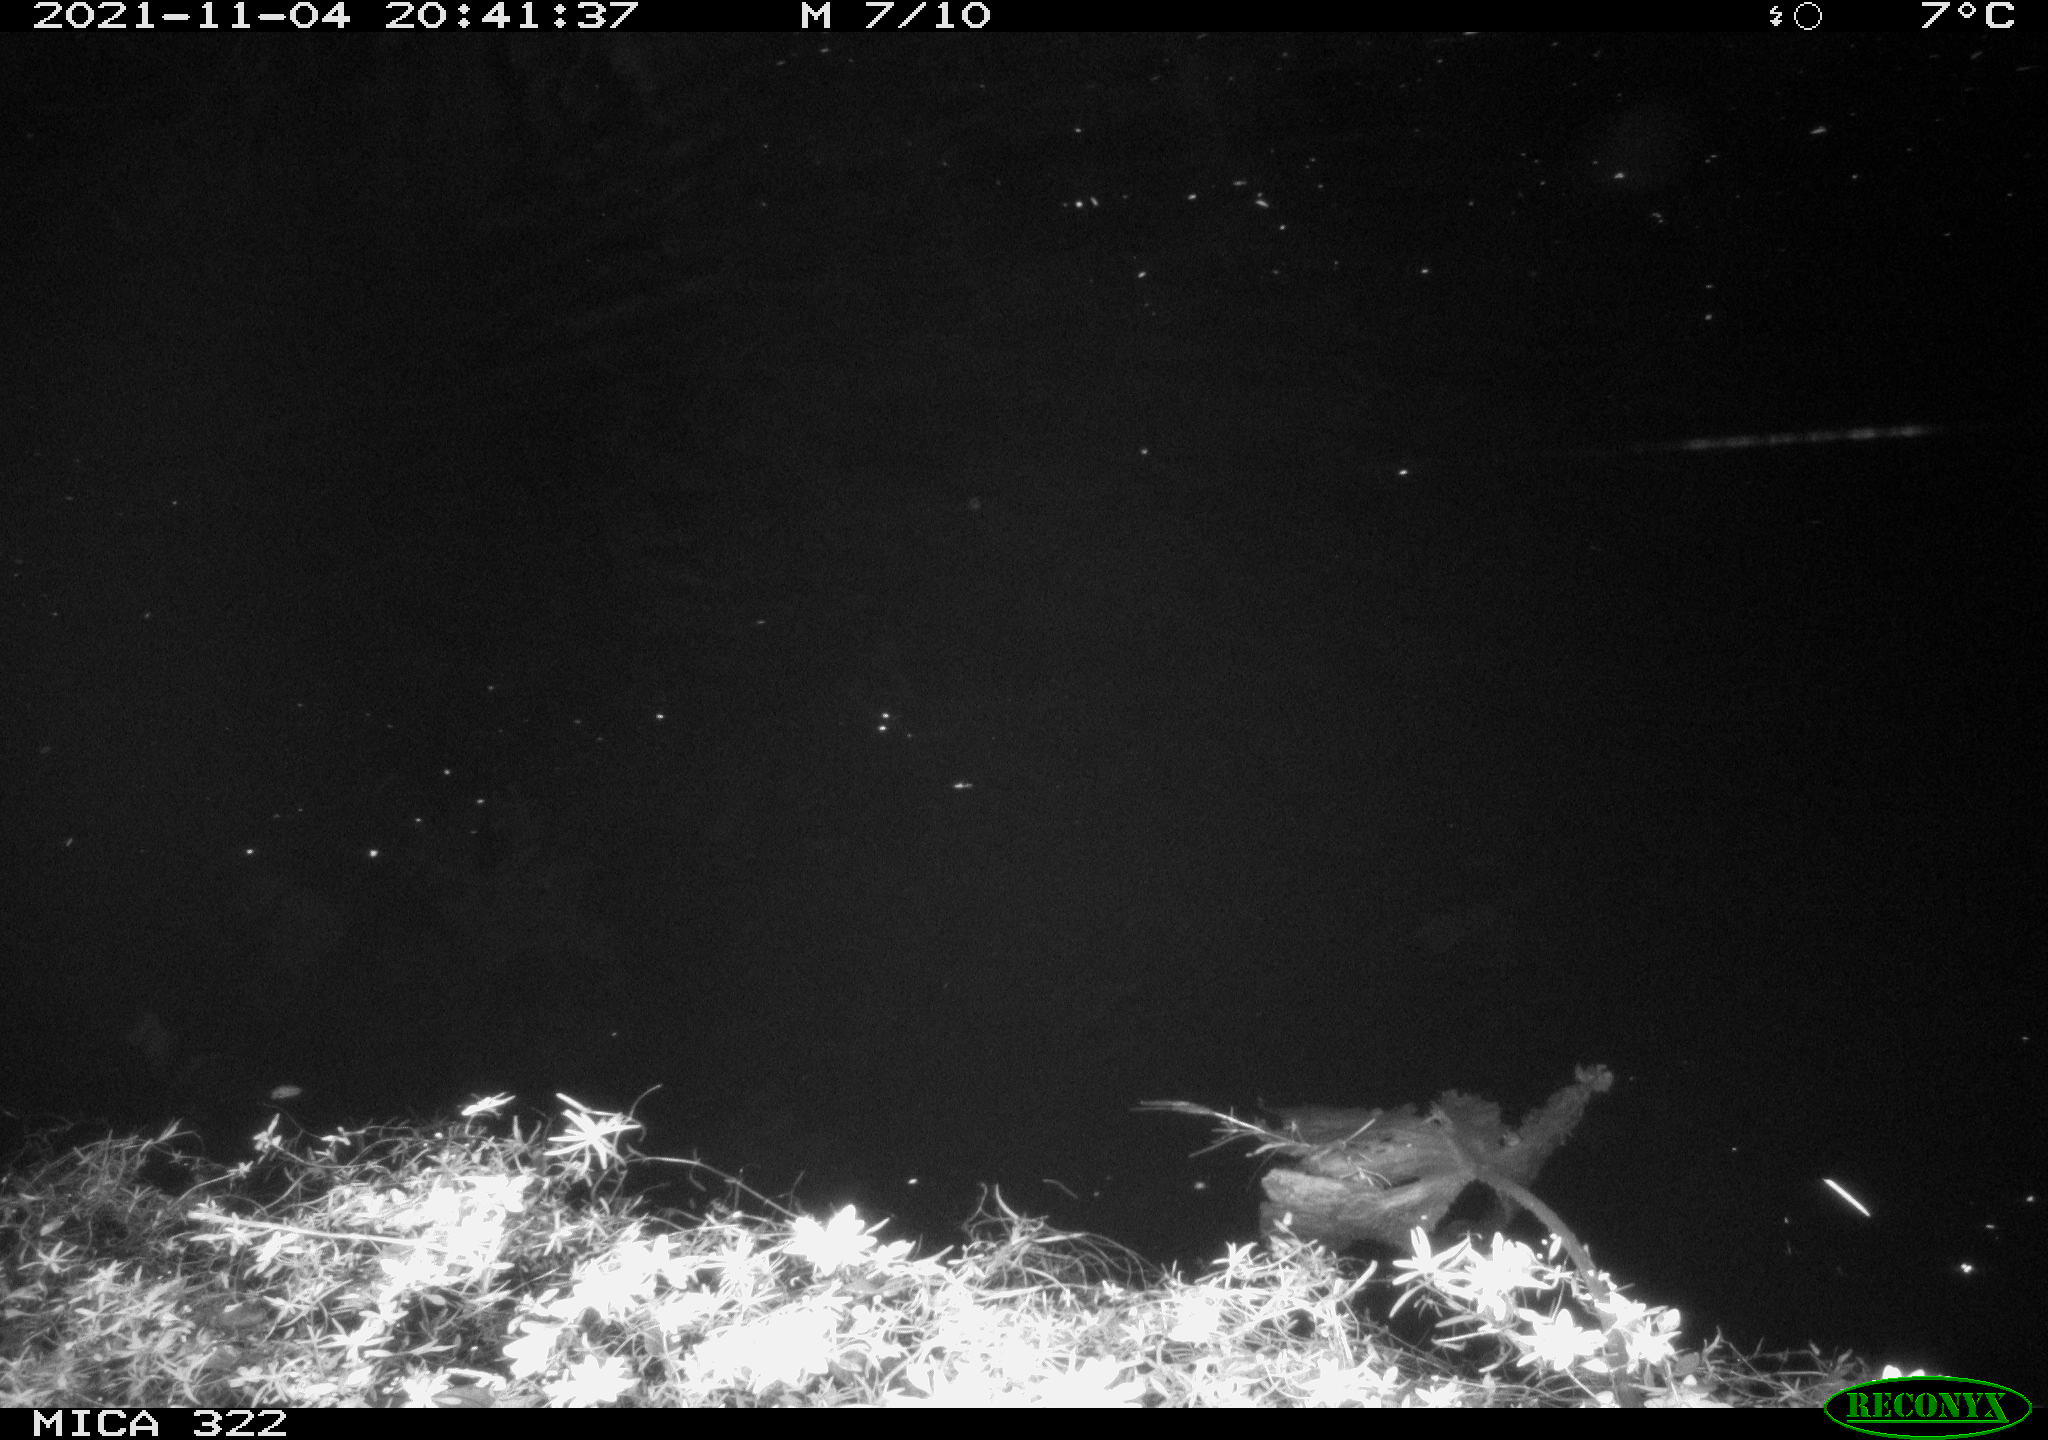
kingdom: Animalia
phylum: Chordata
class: Mammalia
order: Rodentia
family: Muridae
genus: Rattus
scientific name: Rattus norvegicus
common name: Brown rat
